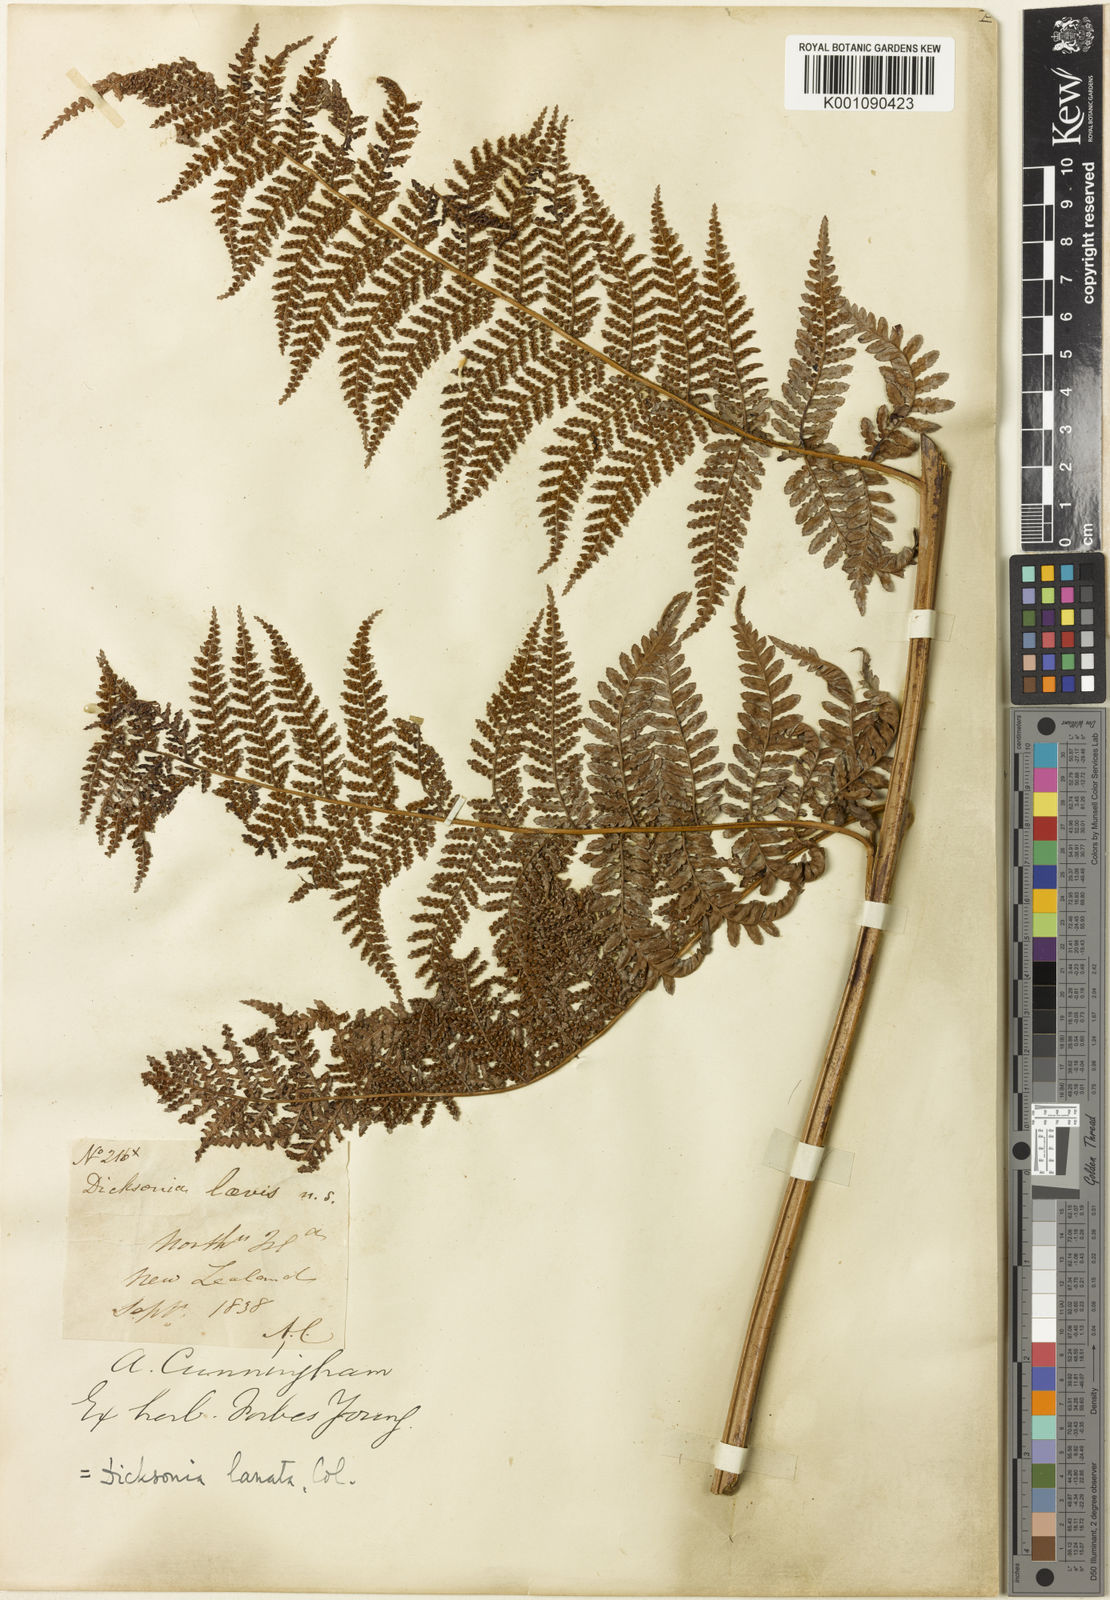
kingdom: Plantae
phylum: Tracheophyta
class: Polypodiopsida
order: Cyatheales
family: Dicksoniaceae
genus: Dicksonia
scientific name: Dicksonia lanata
